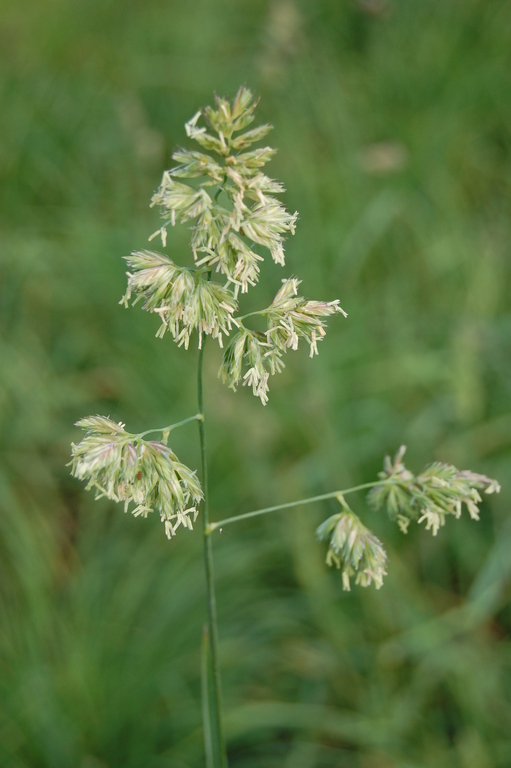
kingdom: Plantae
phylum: Tracheophyta
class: Liliopsida
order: Poales
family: Poaceae
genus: Dactylis
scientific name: Dactylis glomerata
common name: Orchardgrass
